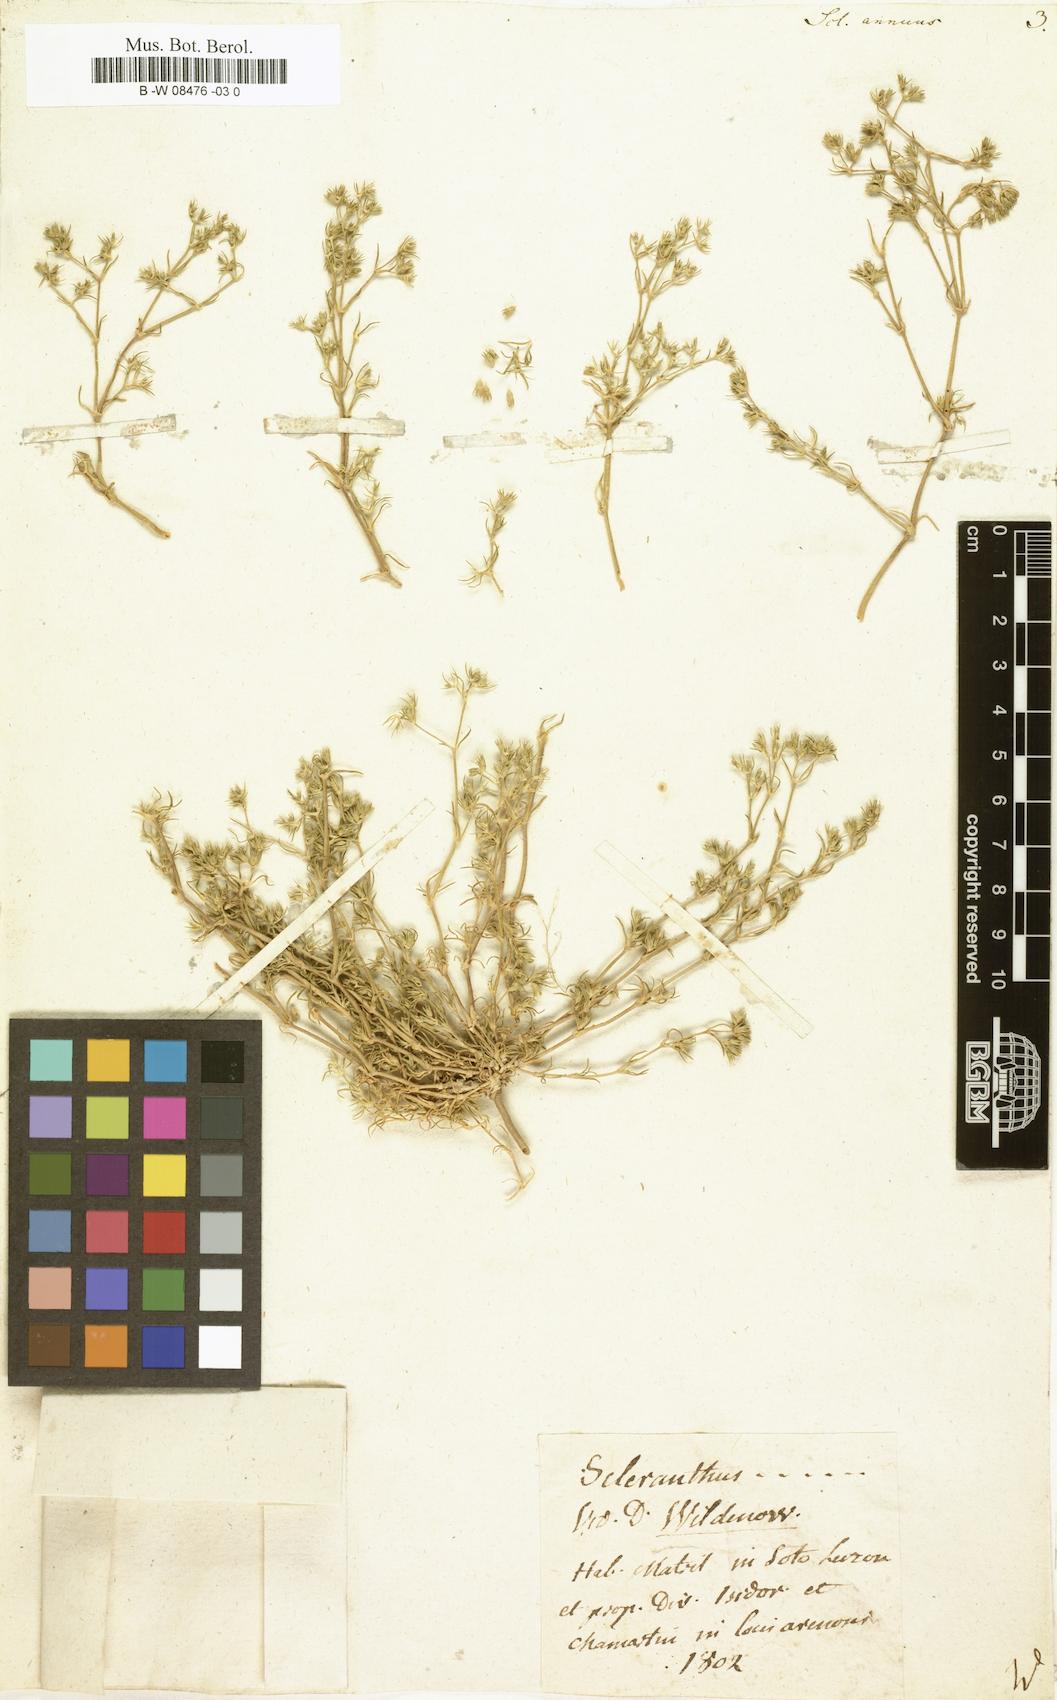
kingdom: Plantae
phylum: Tracheophyta
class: Magnoliopsida
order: Caryophyllales
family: Caryophyllaceae
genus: Scleranthus
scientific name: Scleranthus annuus
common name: Annual knawel
